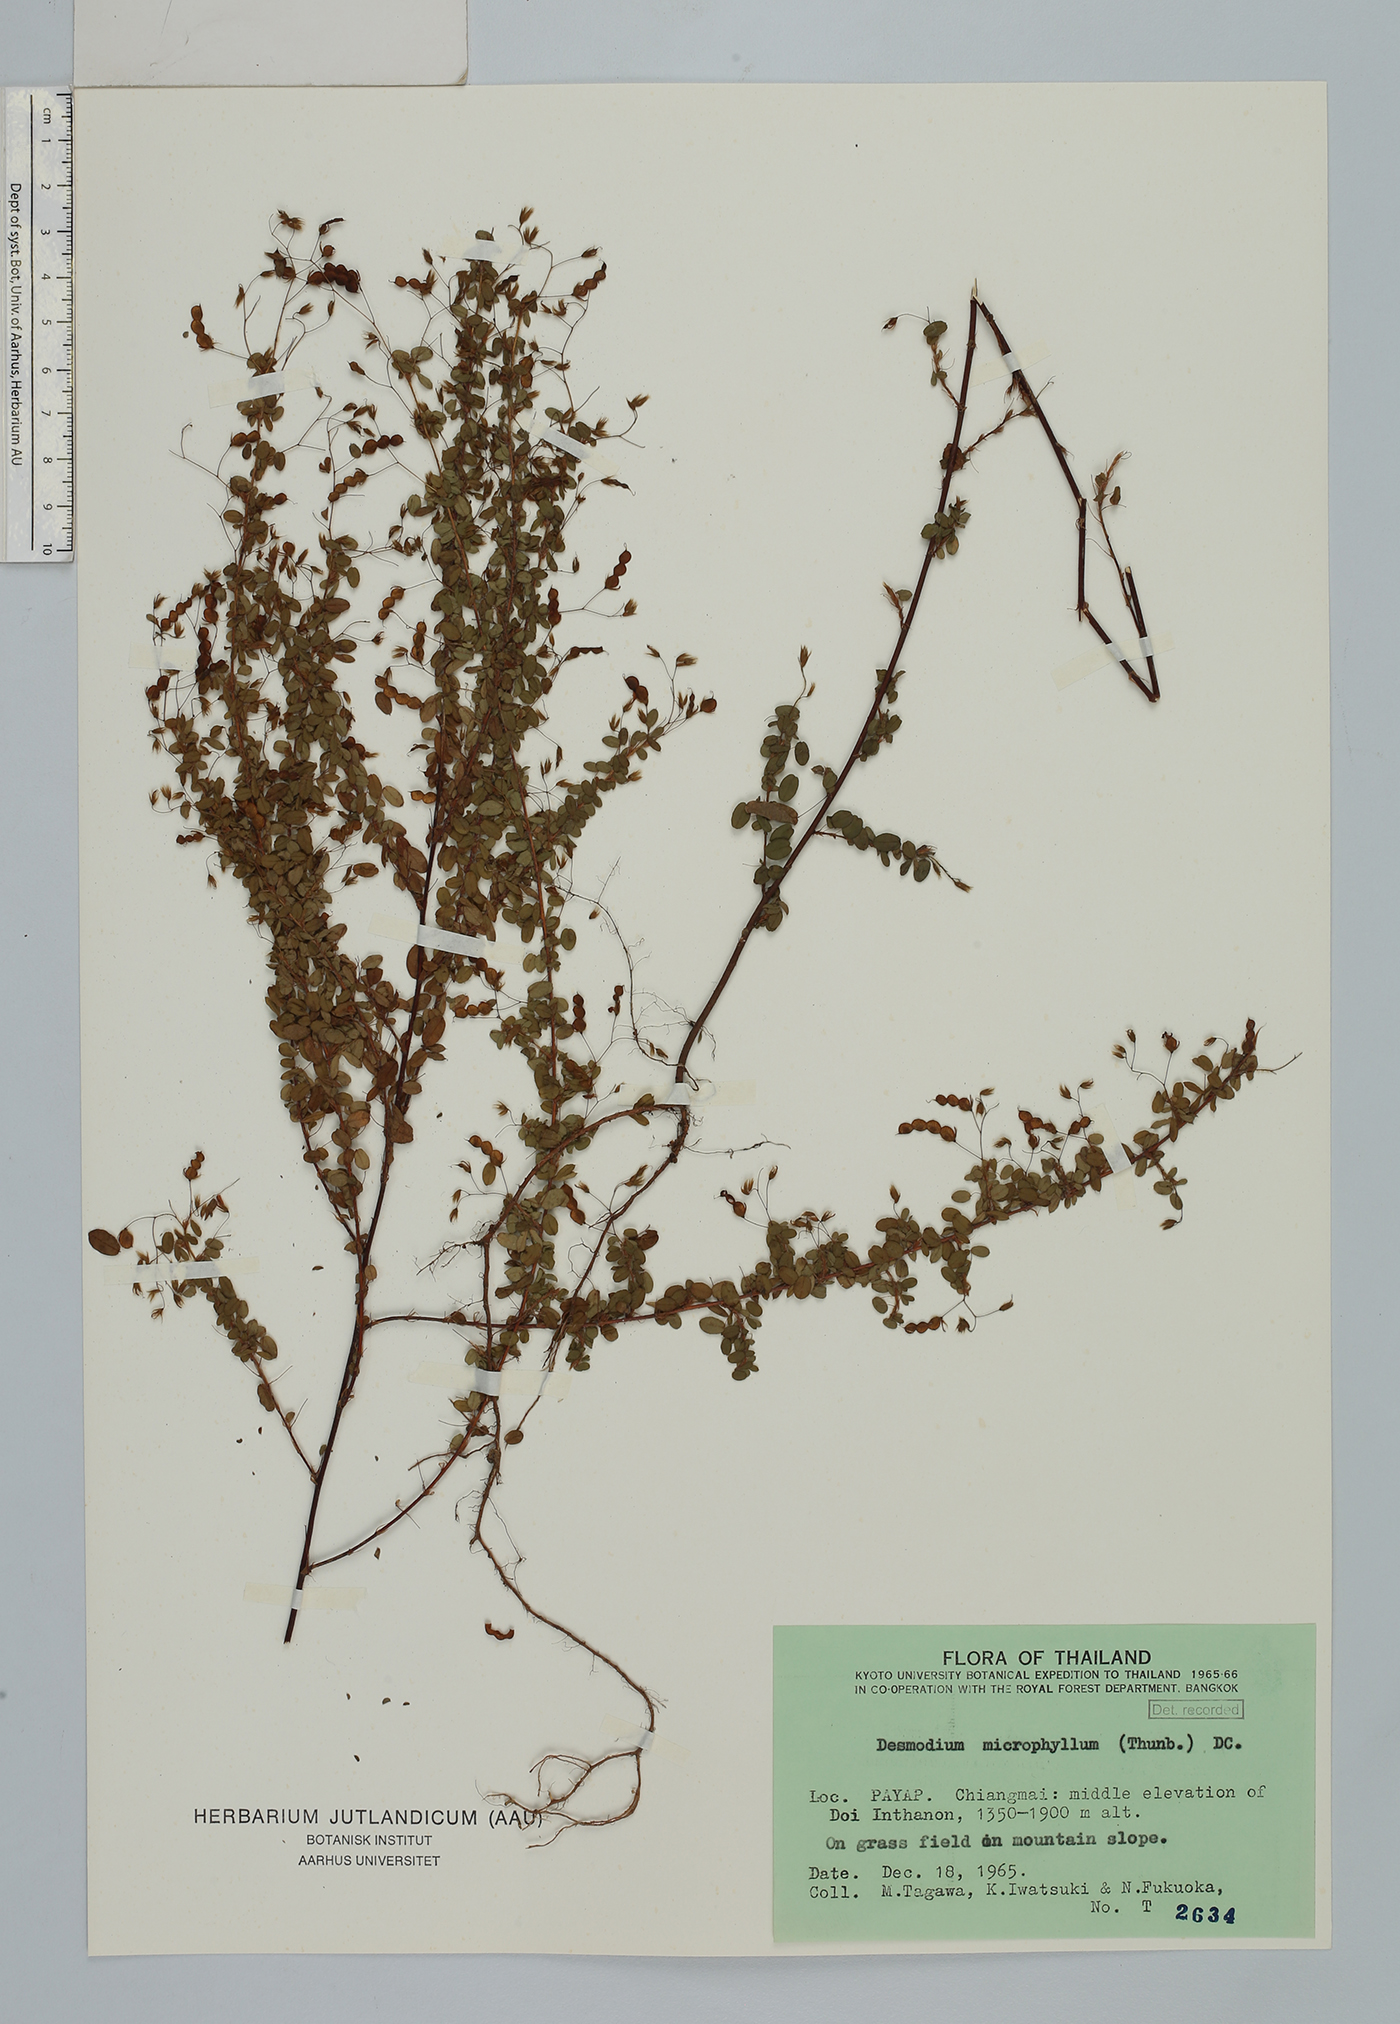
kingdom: Plantae
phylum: Tracheophyta
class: Magnoliopsida
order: Fabales
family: Fabaceae
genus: Leptodesmia
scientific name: Leptodesmia microphylla
